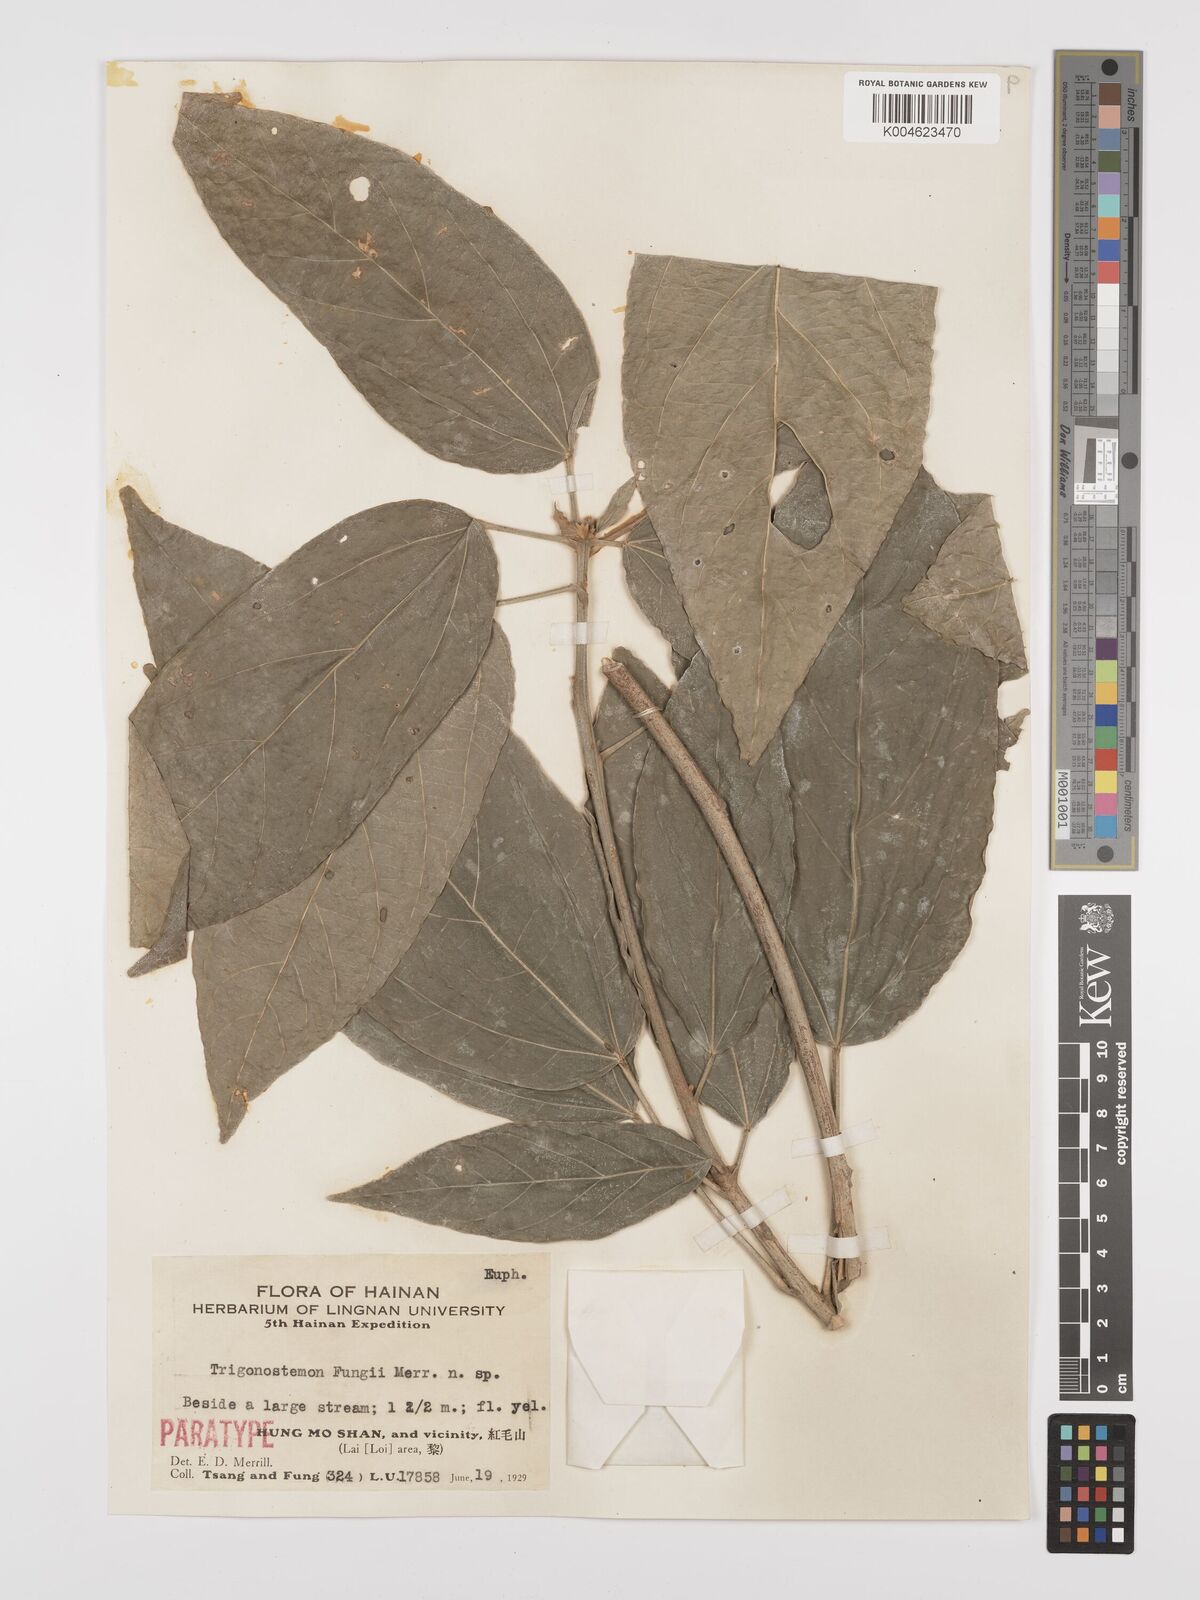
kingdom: Plantae
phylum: Tracheophyta
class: Magnoliopsida
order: Malpighiales
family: Euphorbiaceae
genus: Trigonostemon
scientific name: Trigonostemon viridissimus
